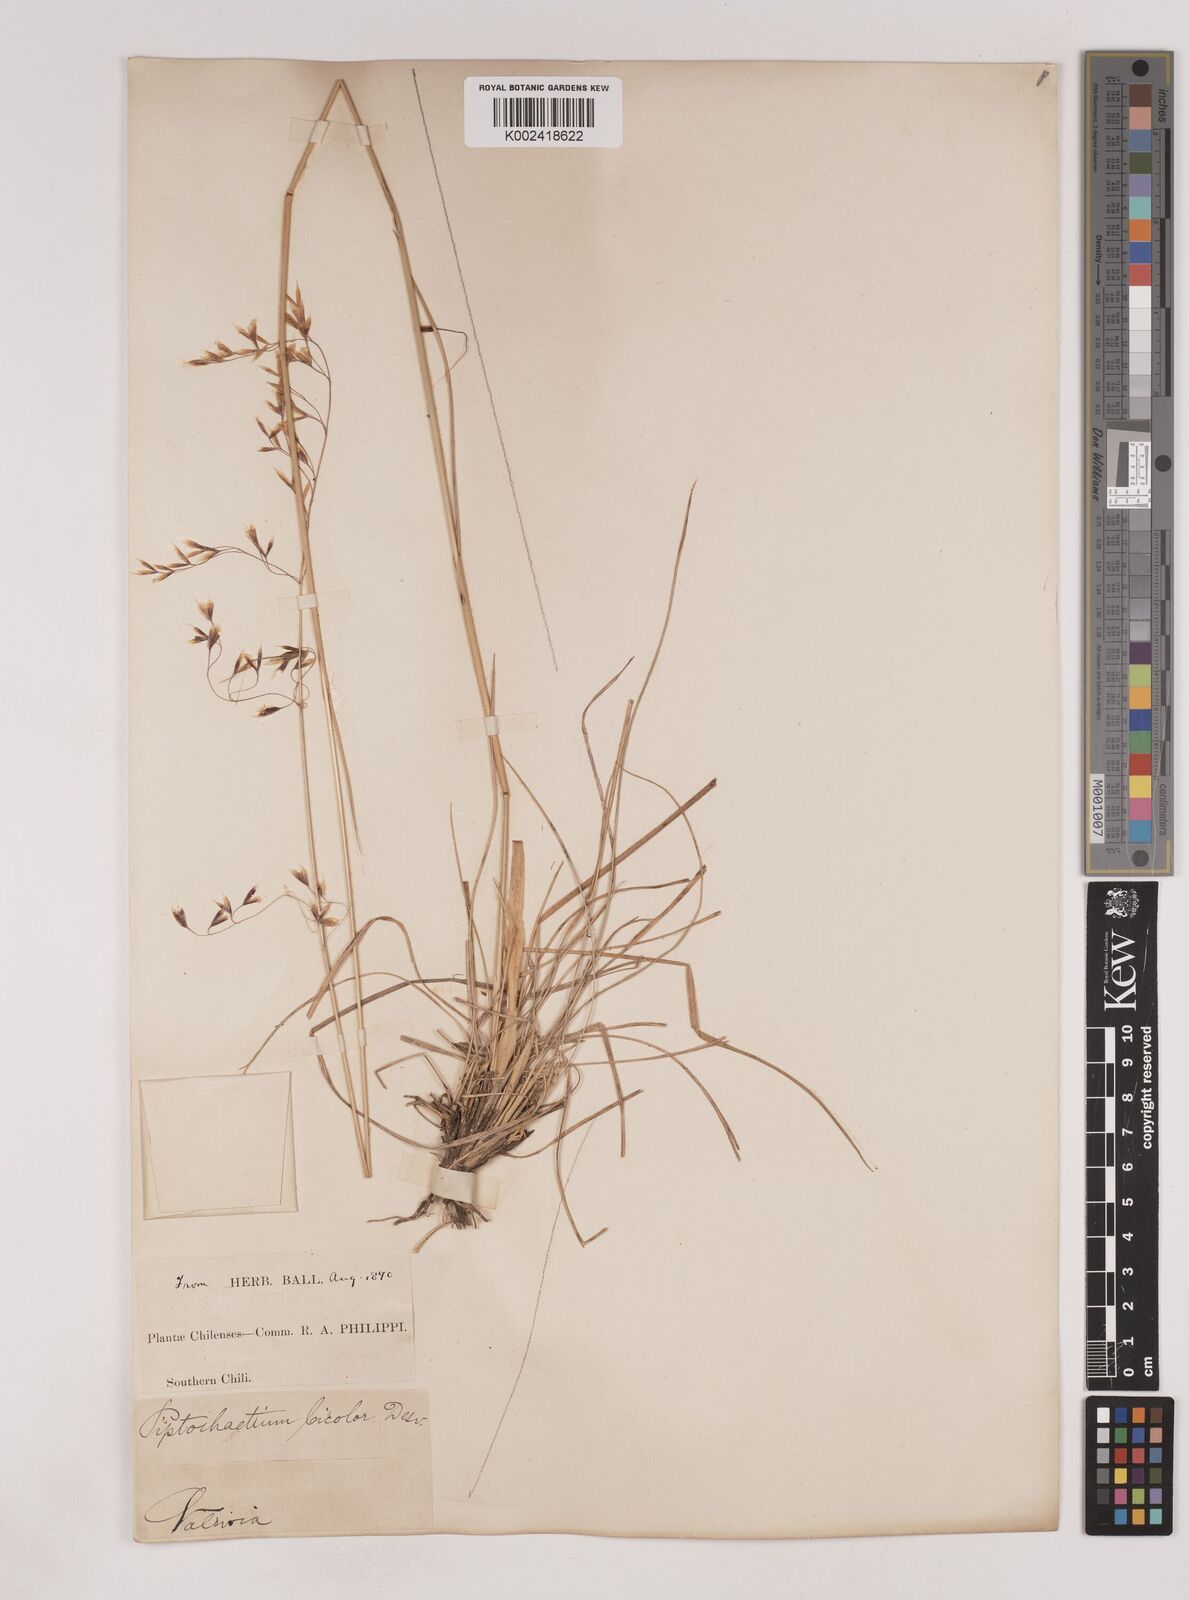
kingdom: Plantae
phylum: Tracheophyta
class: Liliopsida
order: Poales
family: Poaceae
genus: Piptochaetium
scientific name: Piptochaetium
